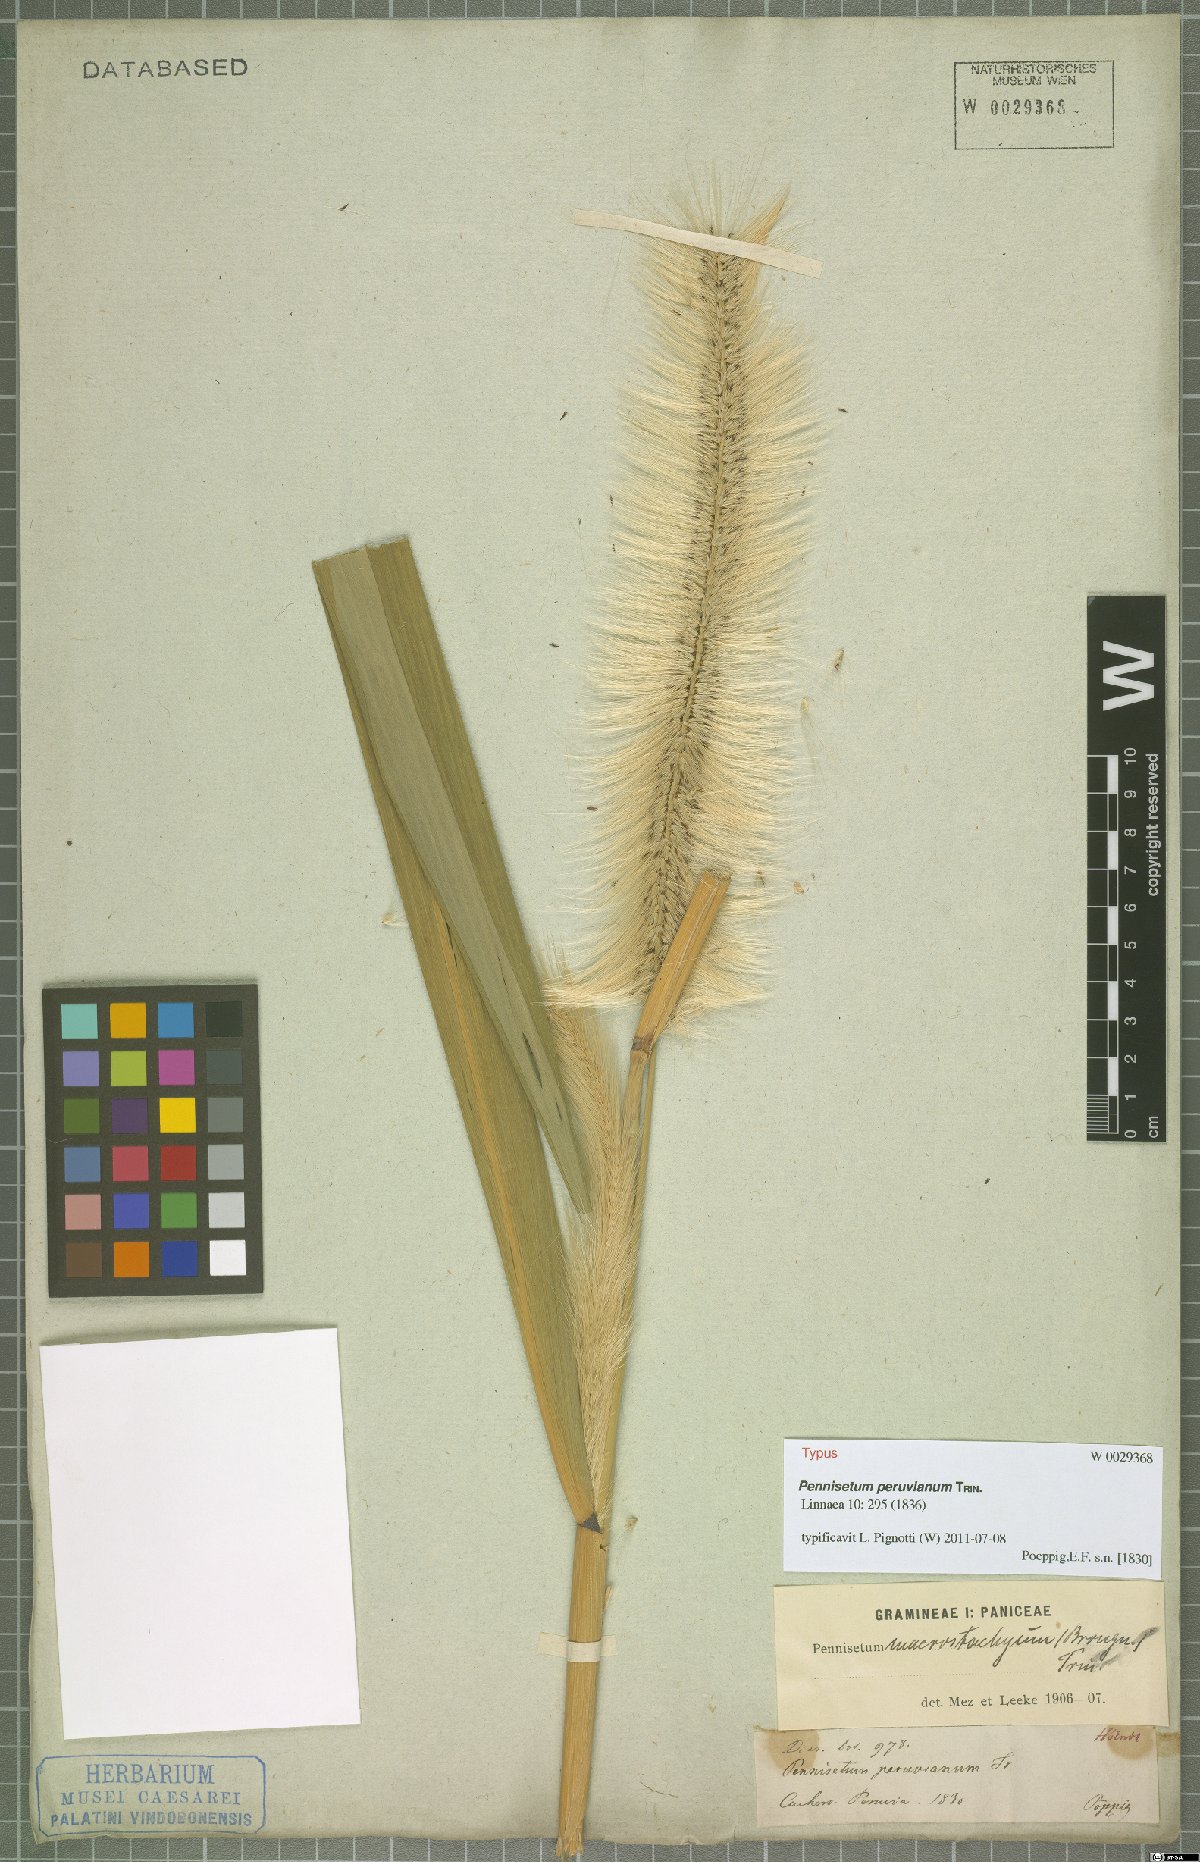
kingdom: Plantae
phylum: Tracheophyta
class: Liliopsida
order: Poales
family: Poaceae
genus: Cenchrus
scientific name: Cenchrus peruvianus
